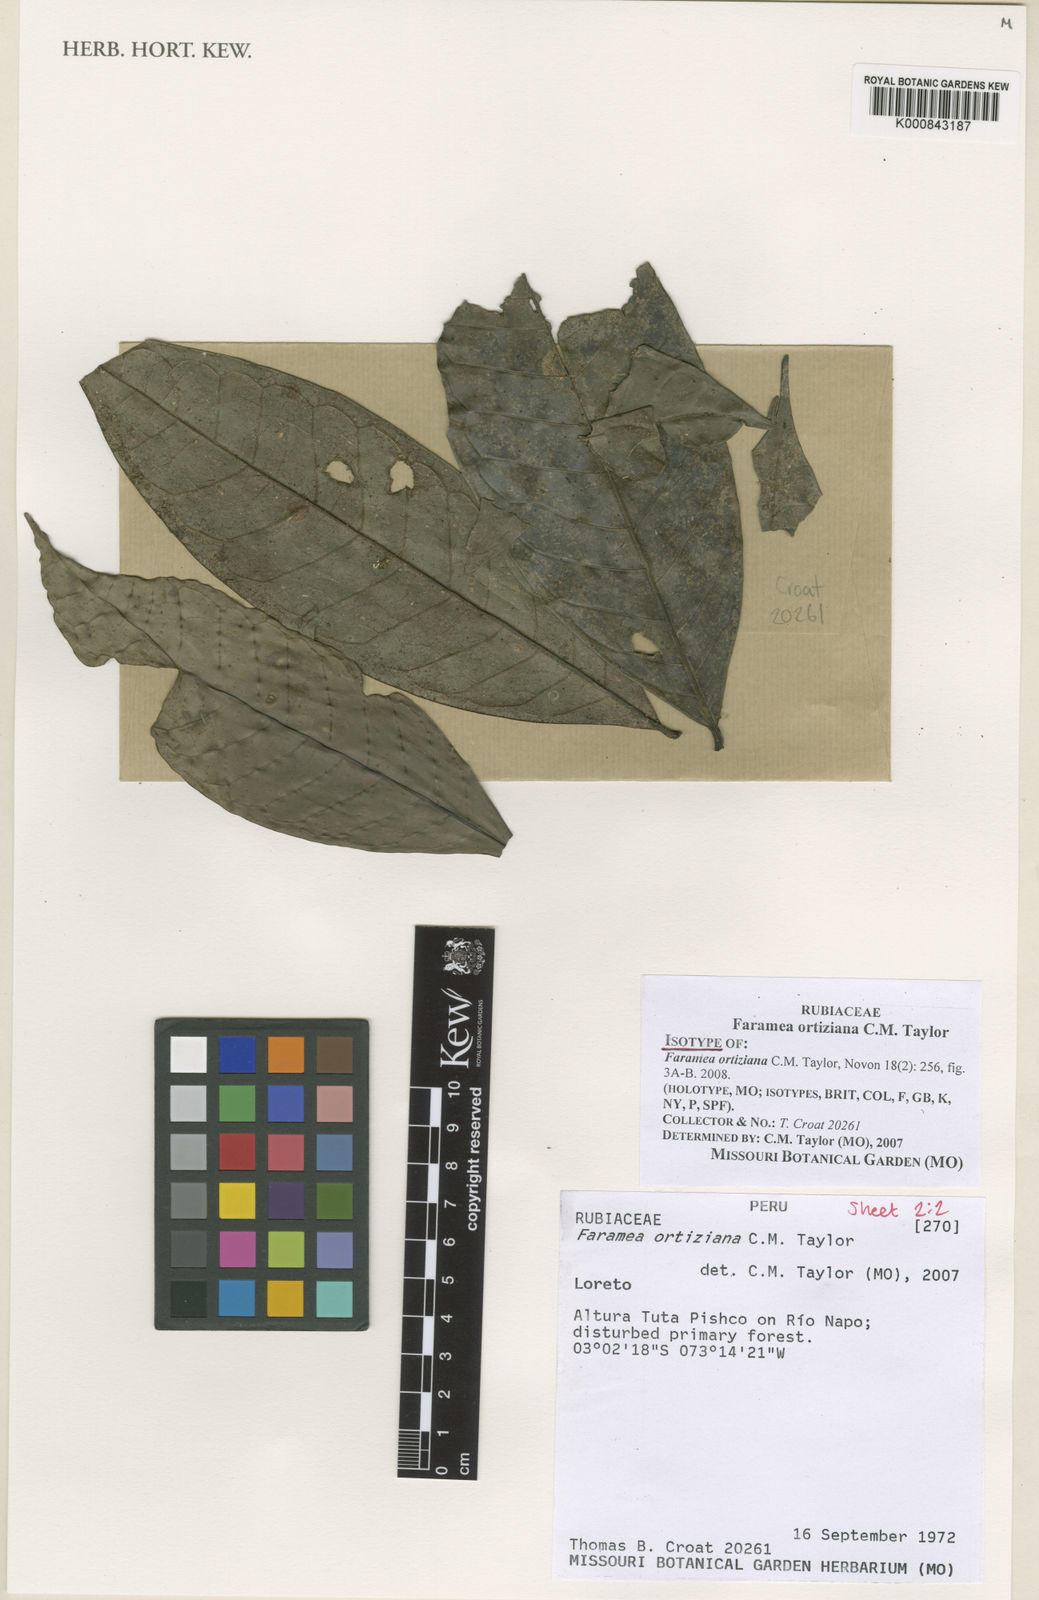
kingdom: Plantae
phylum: Tracheophyta
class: Magnoliopsida
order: Gentianales
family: Rubiaceae
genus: Faramea
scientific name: Faramea ortiziana
